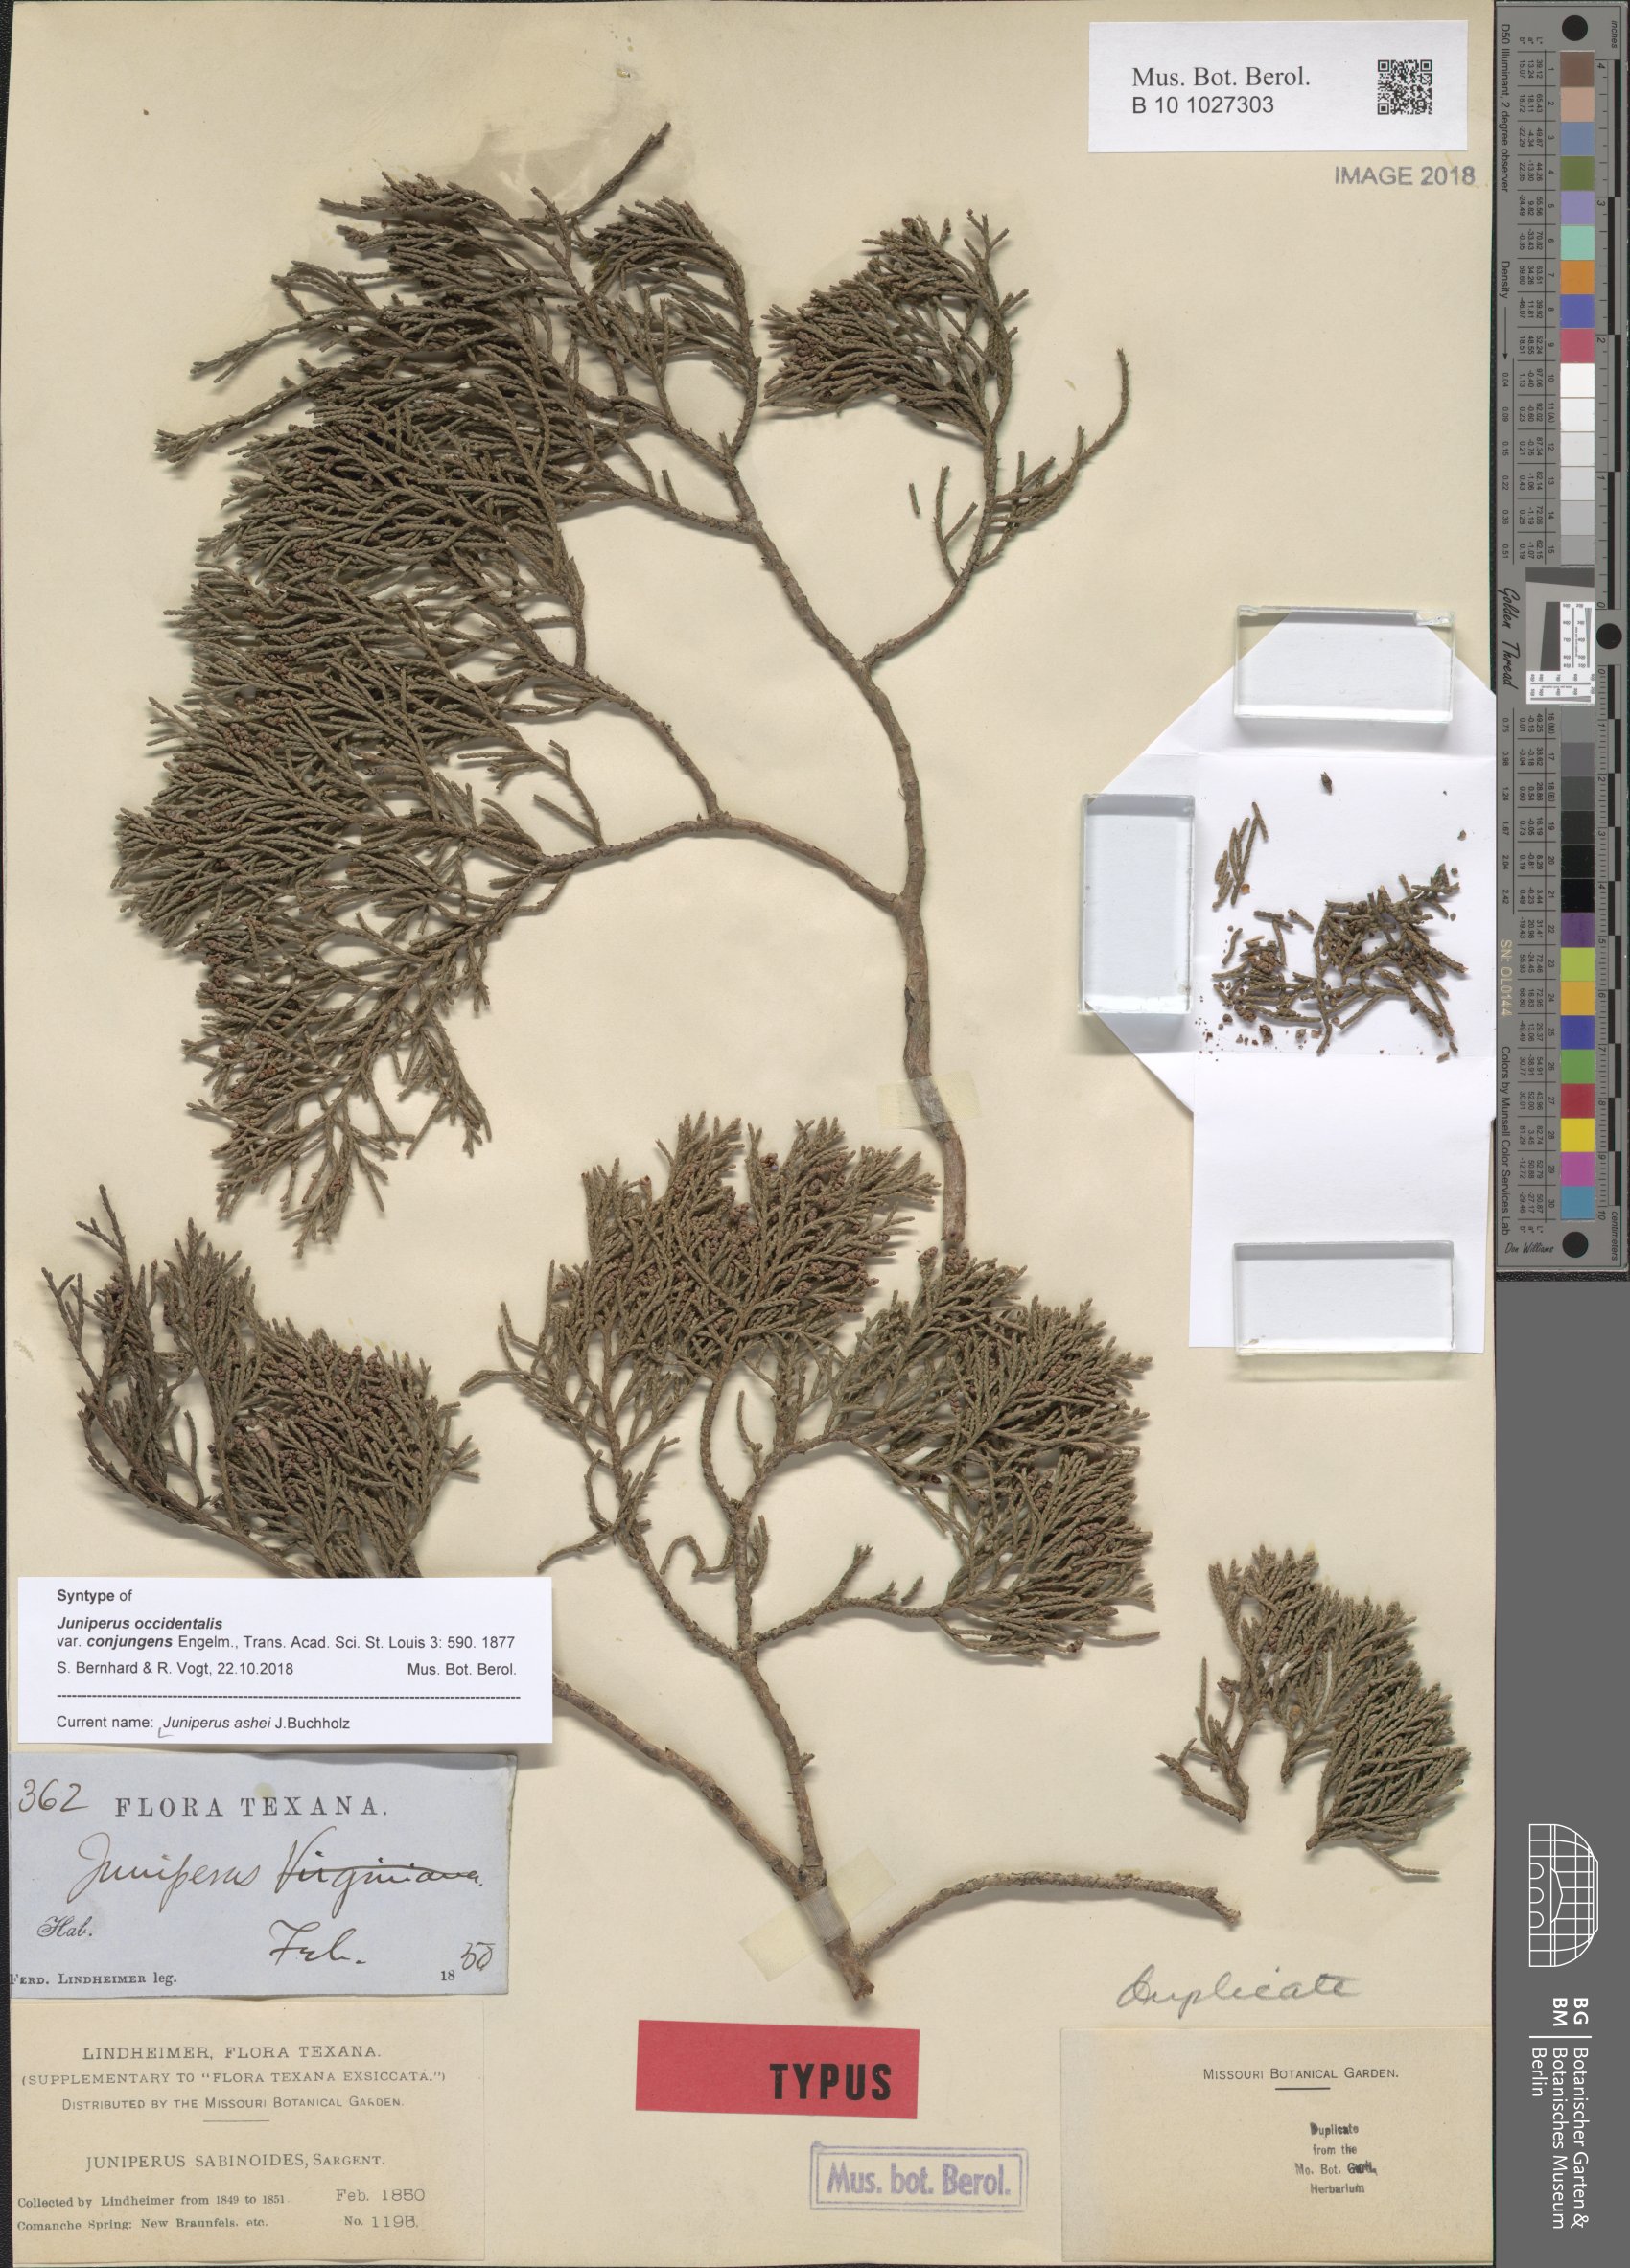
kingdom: Plantae
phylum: Tracheophyta
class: Pinopsida
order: Pinales
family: Cupressaceae
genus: Juniperus
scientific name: Juniperus ashei
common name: Mexican juniper
